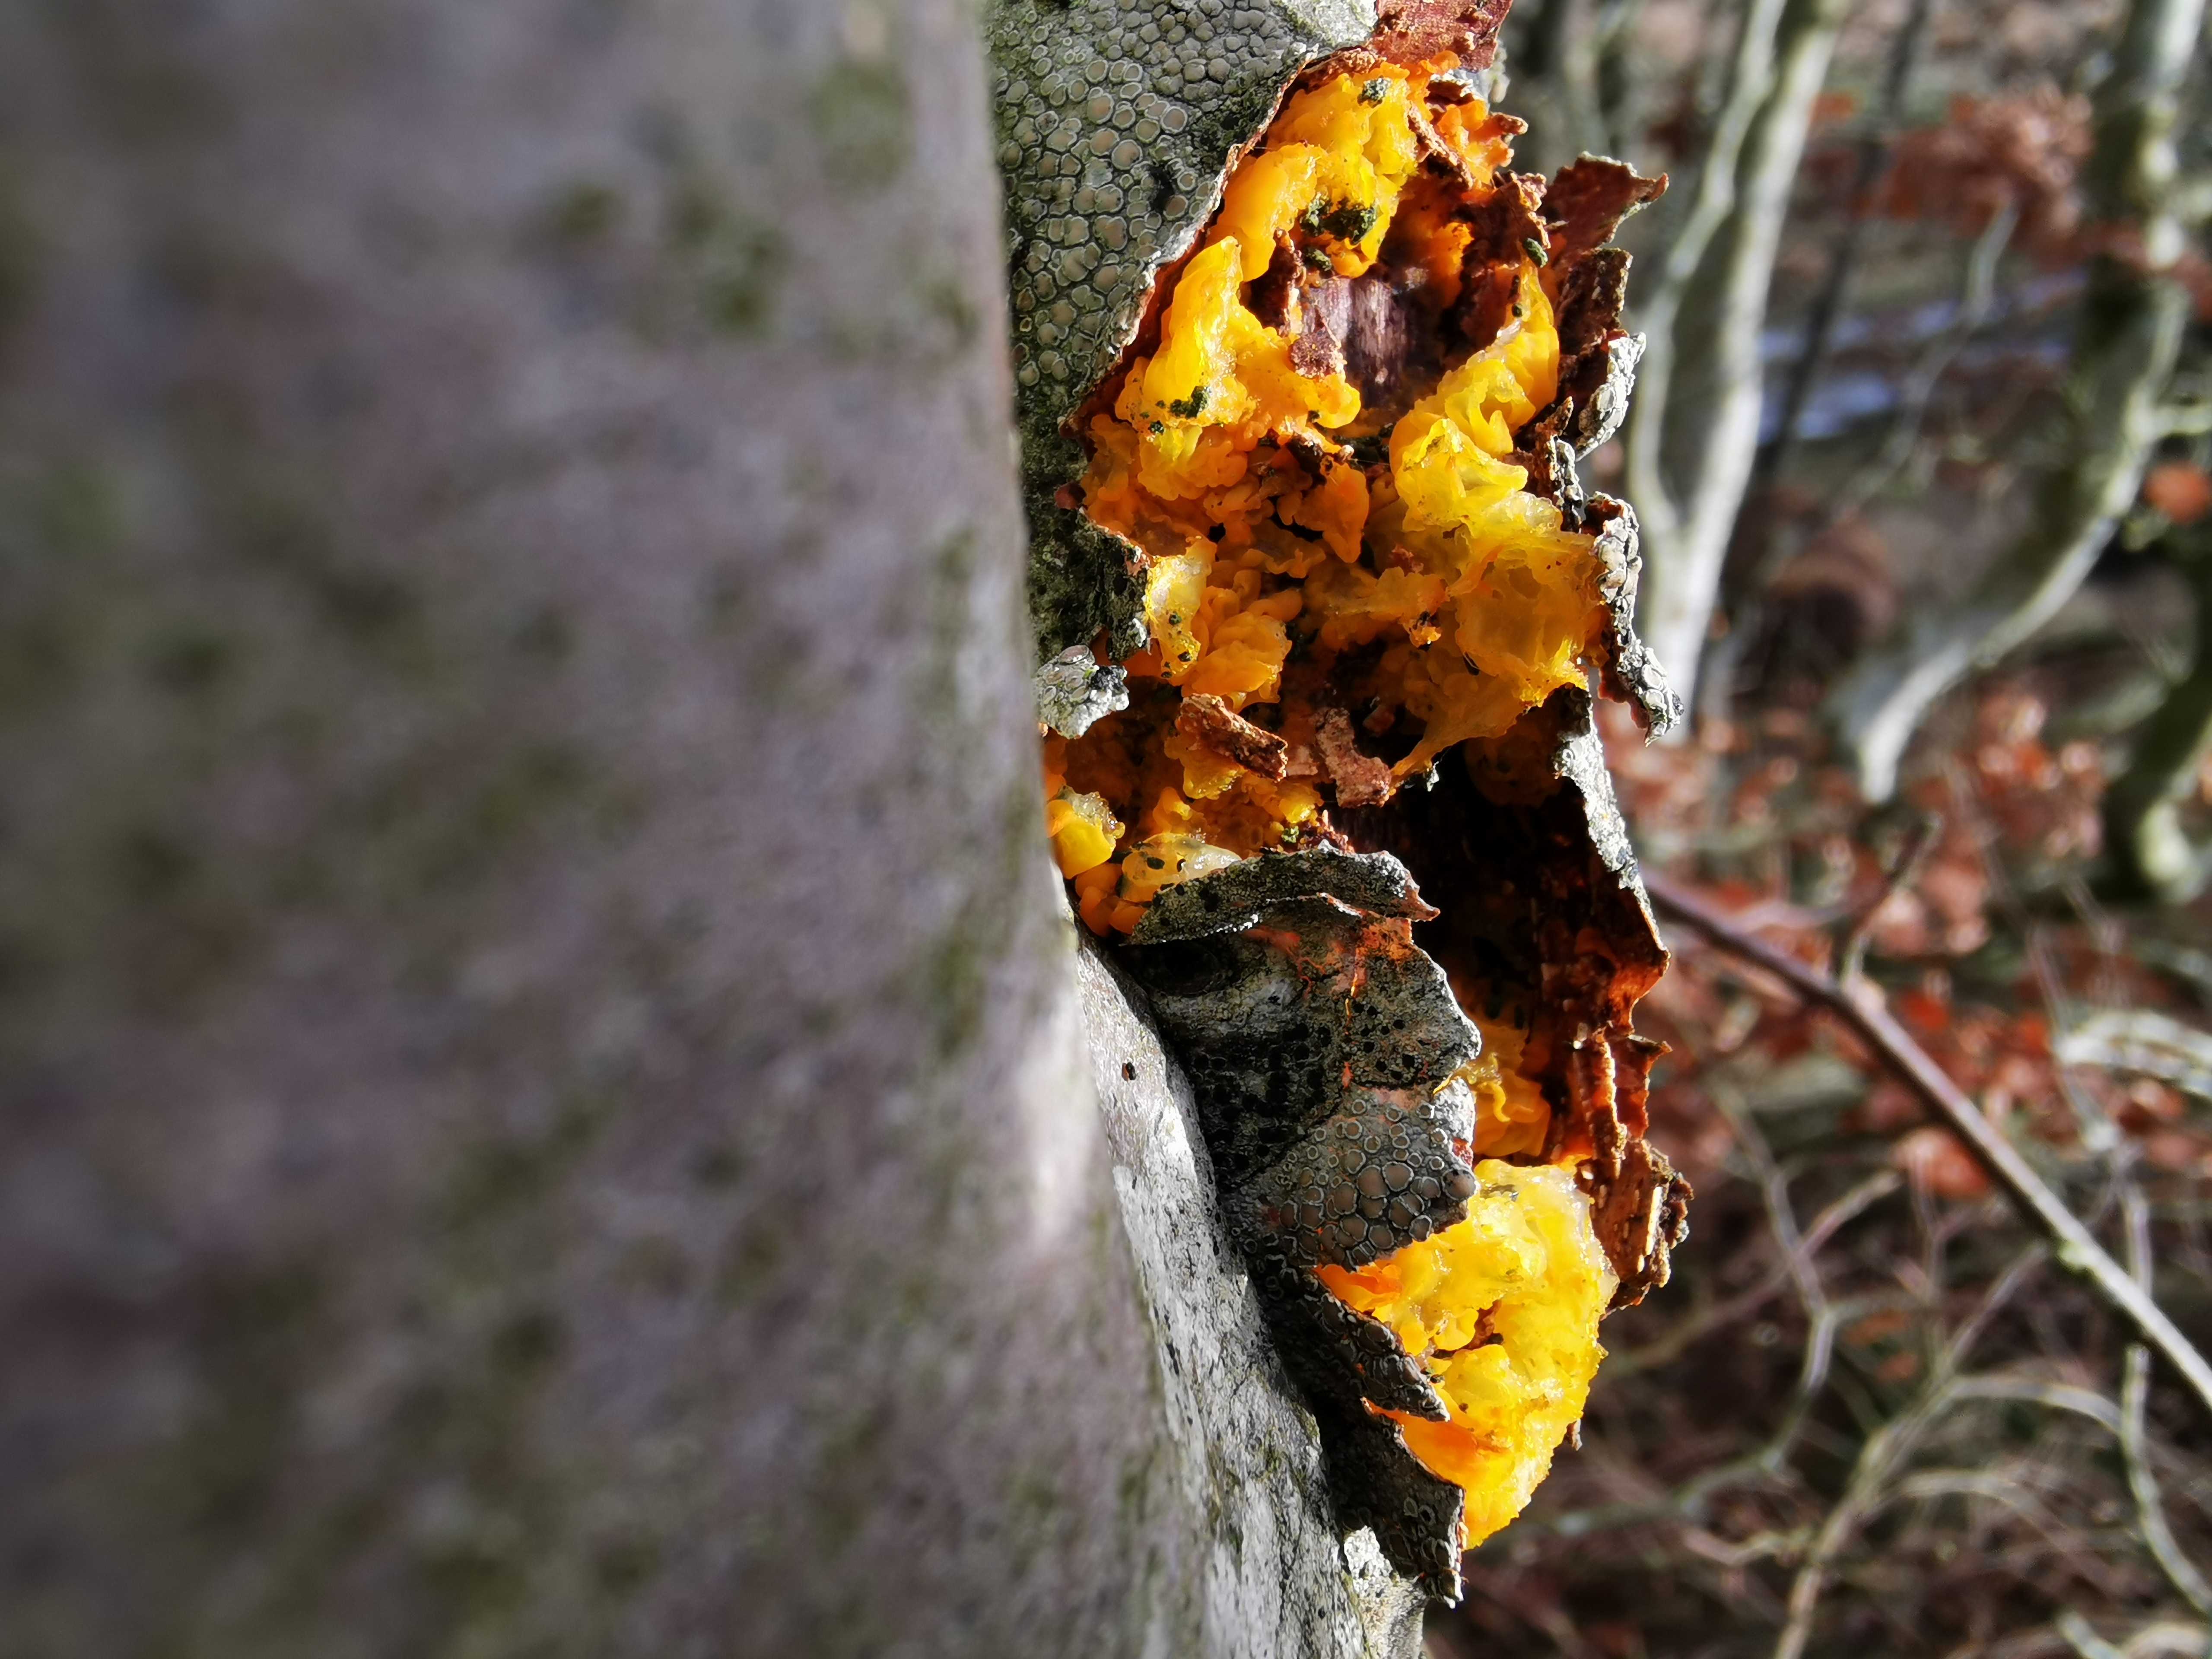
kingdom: Fungi
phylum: Basidiomycota
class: Tremellomycetes
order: Tremellales
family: Tremellaceae
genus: Tremella
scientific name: Tremella mesenterica
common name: gul bævresvamp
